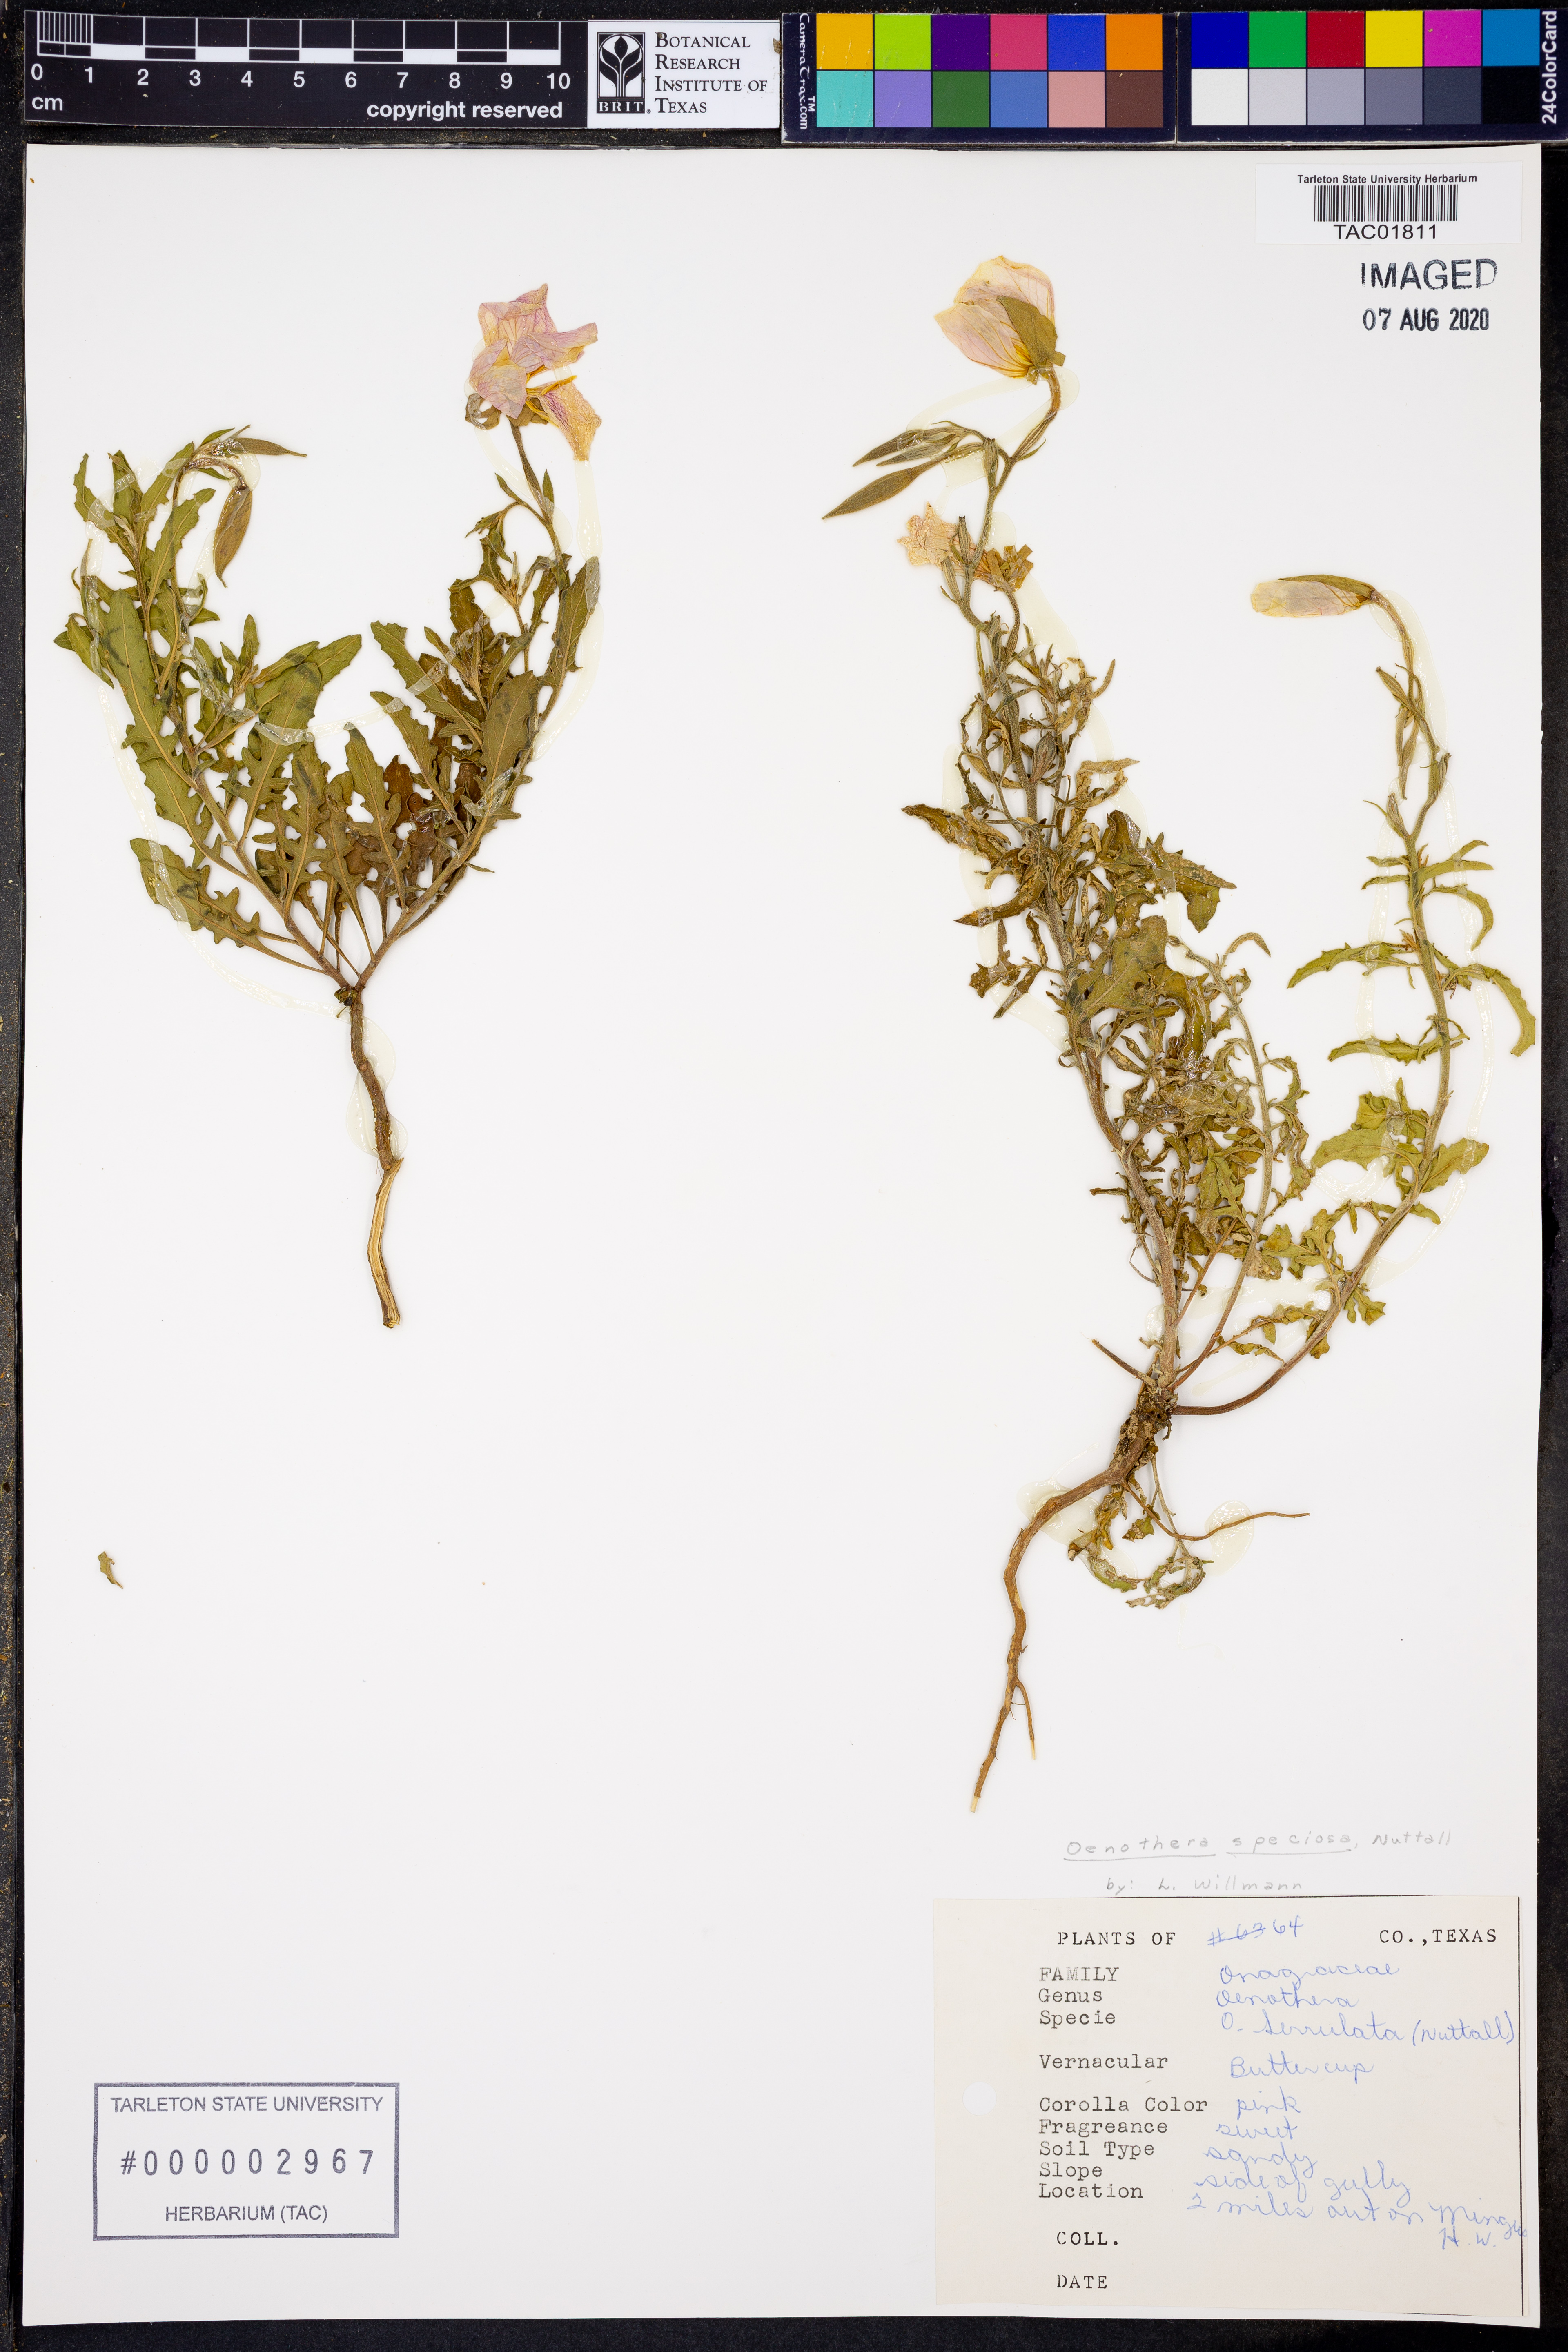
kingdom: Plantae
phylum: Tracheophyta
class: Magnoliopsida
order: Myrtales
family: Onagraceae
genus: Oenothera
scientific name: Oenothera serrulata
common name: Half-shrub calylophus
